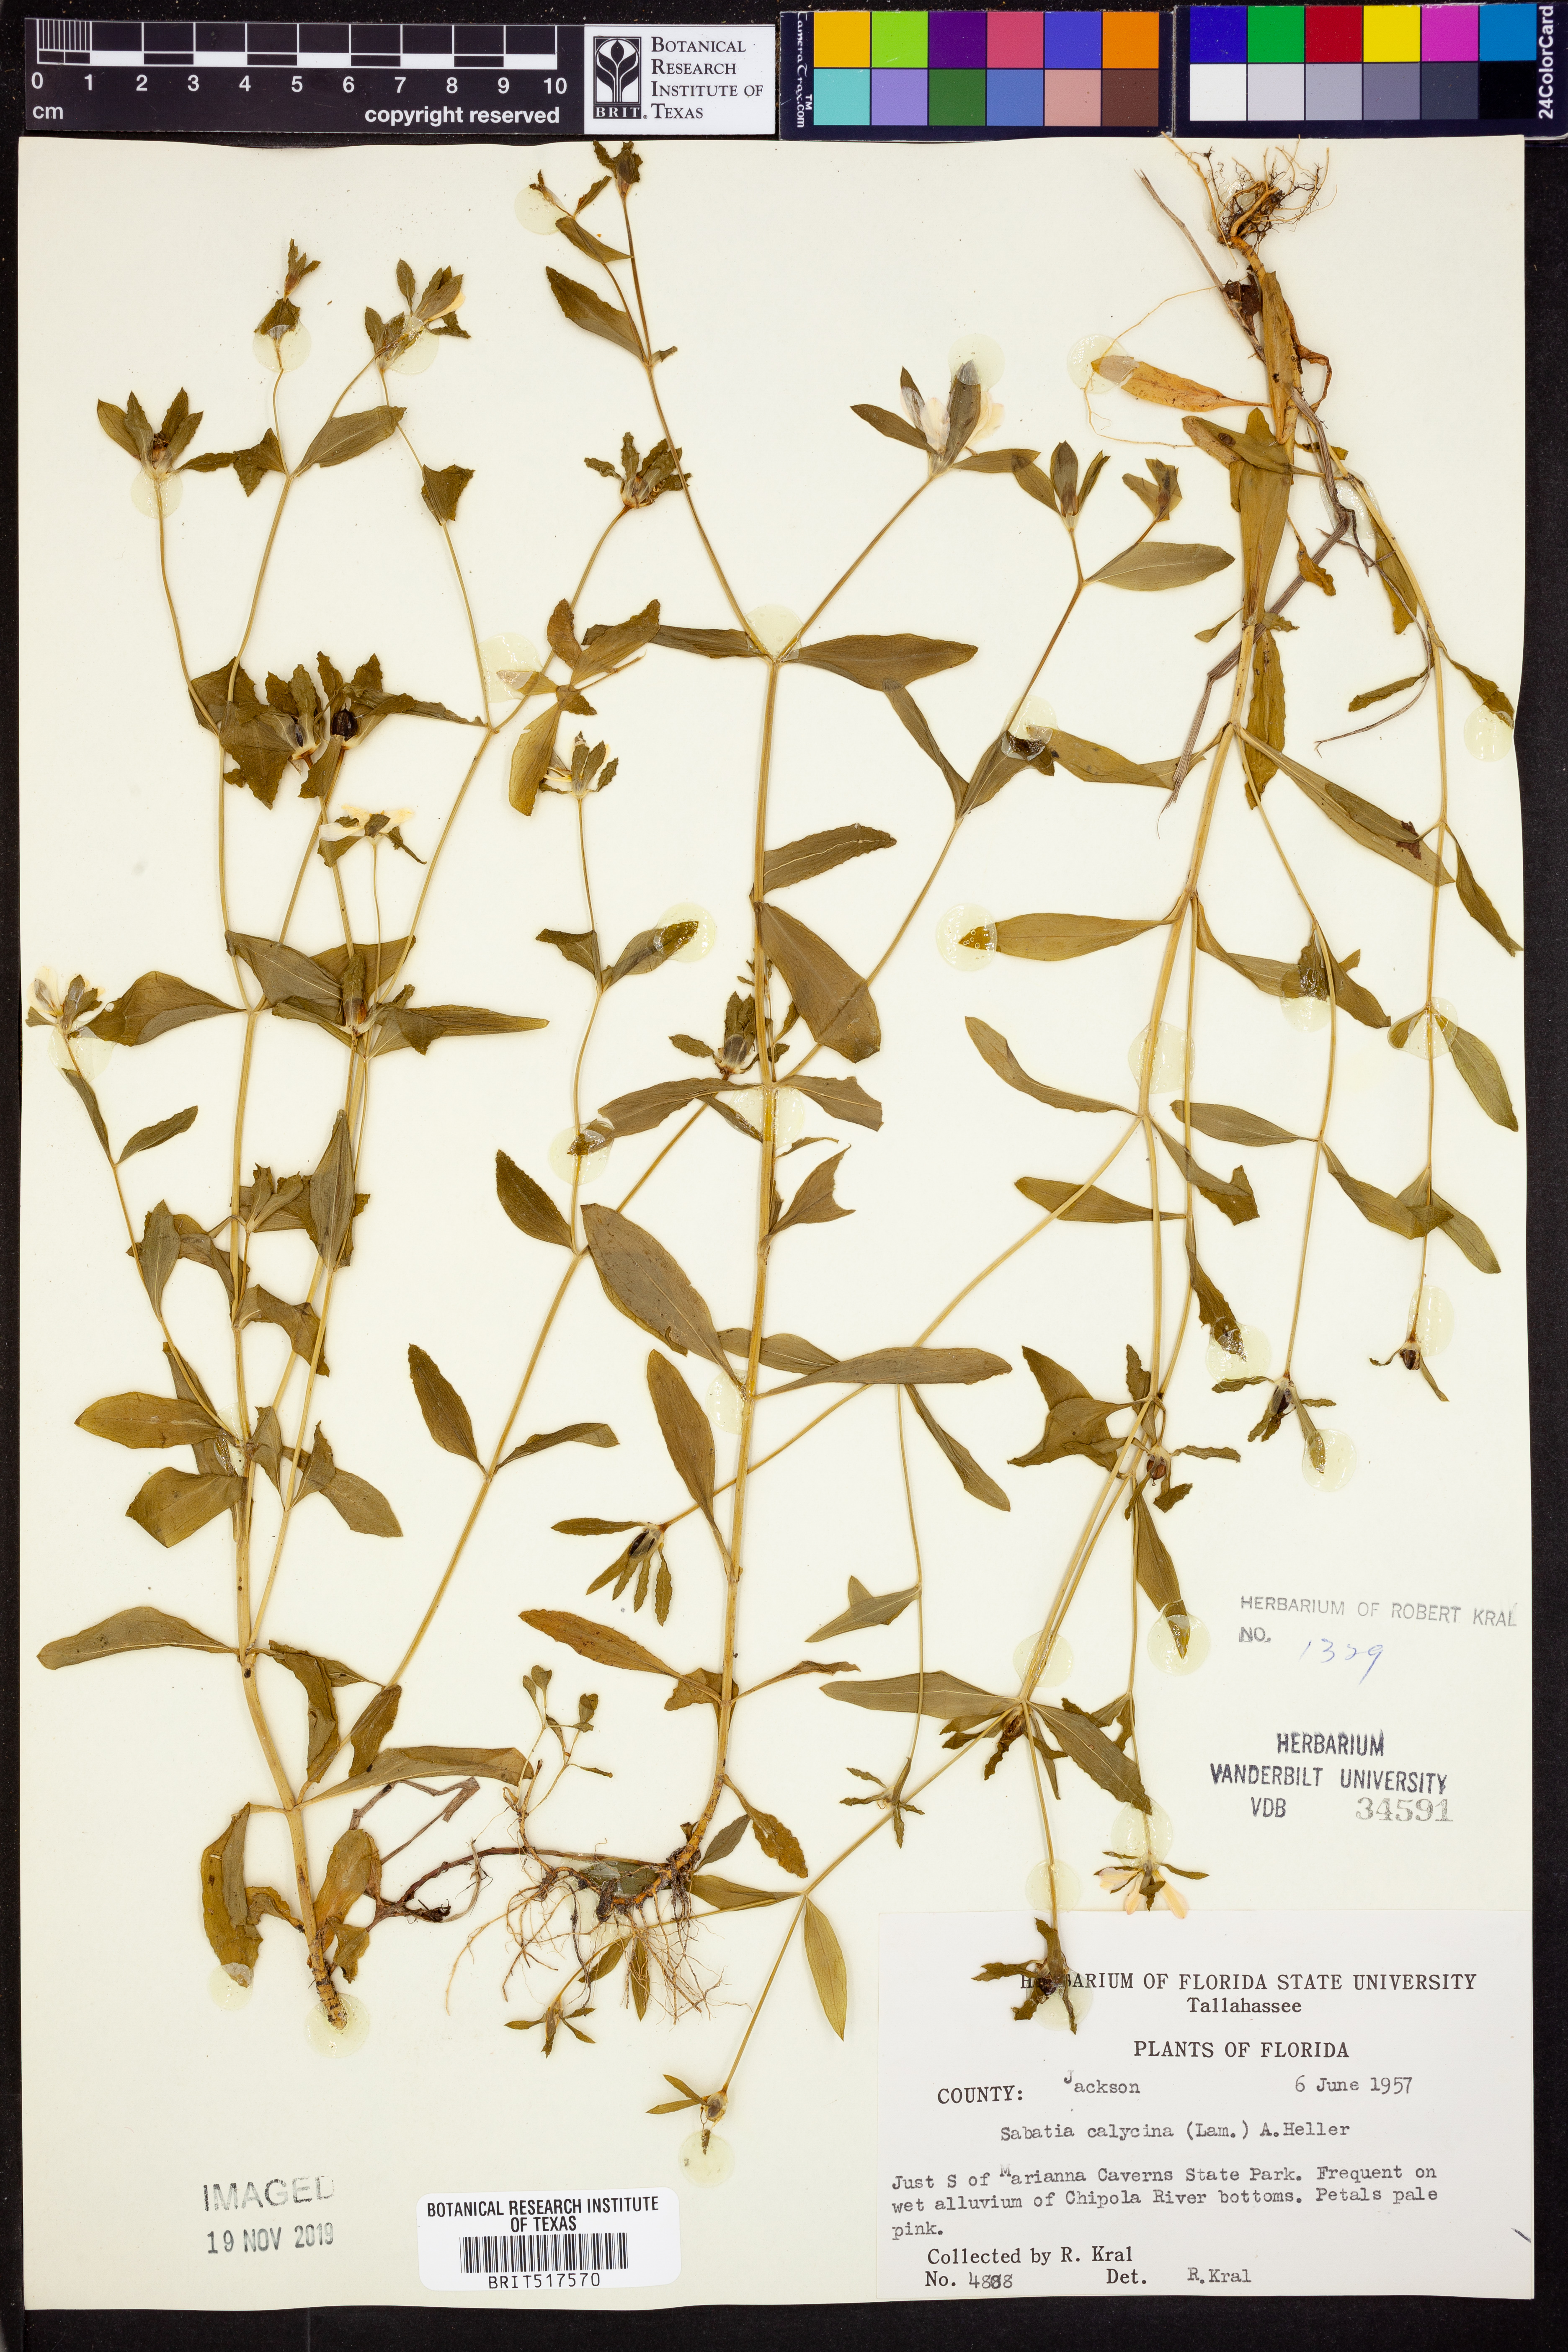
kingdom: Plantae
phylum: Tracheophyta
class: Magnoliopsida
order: Gentianales
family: Gentianaceae
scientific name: Gentianaceae
